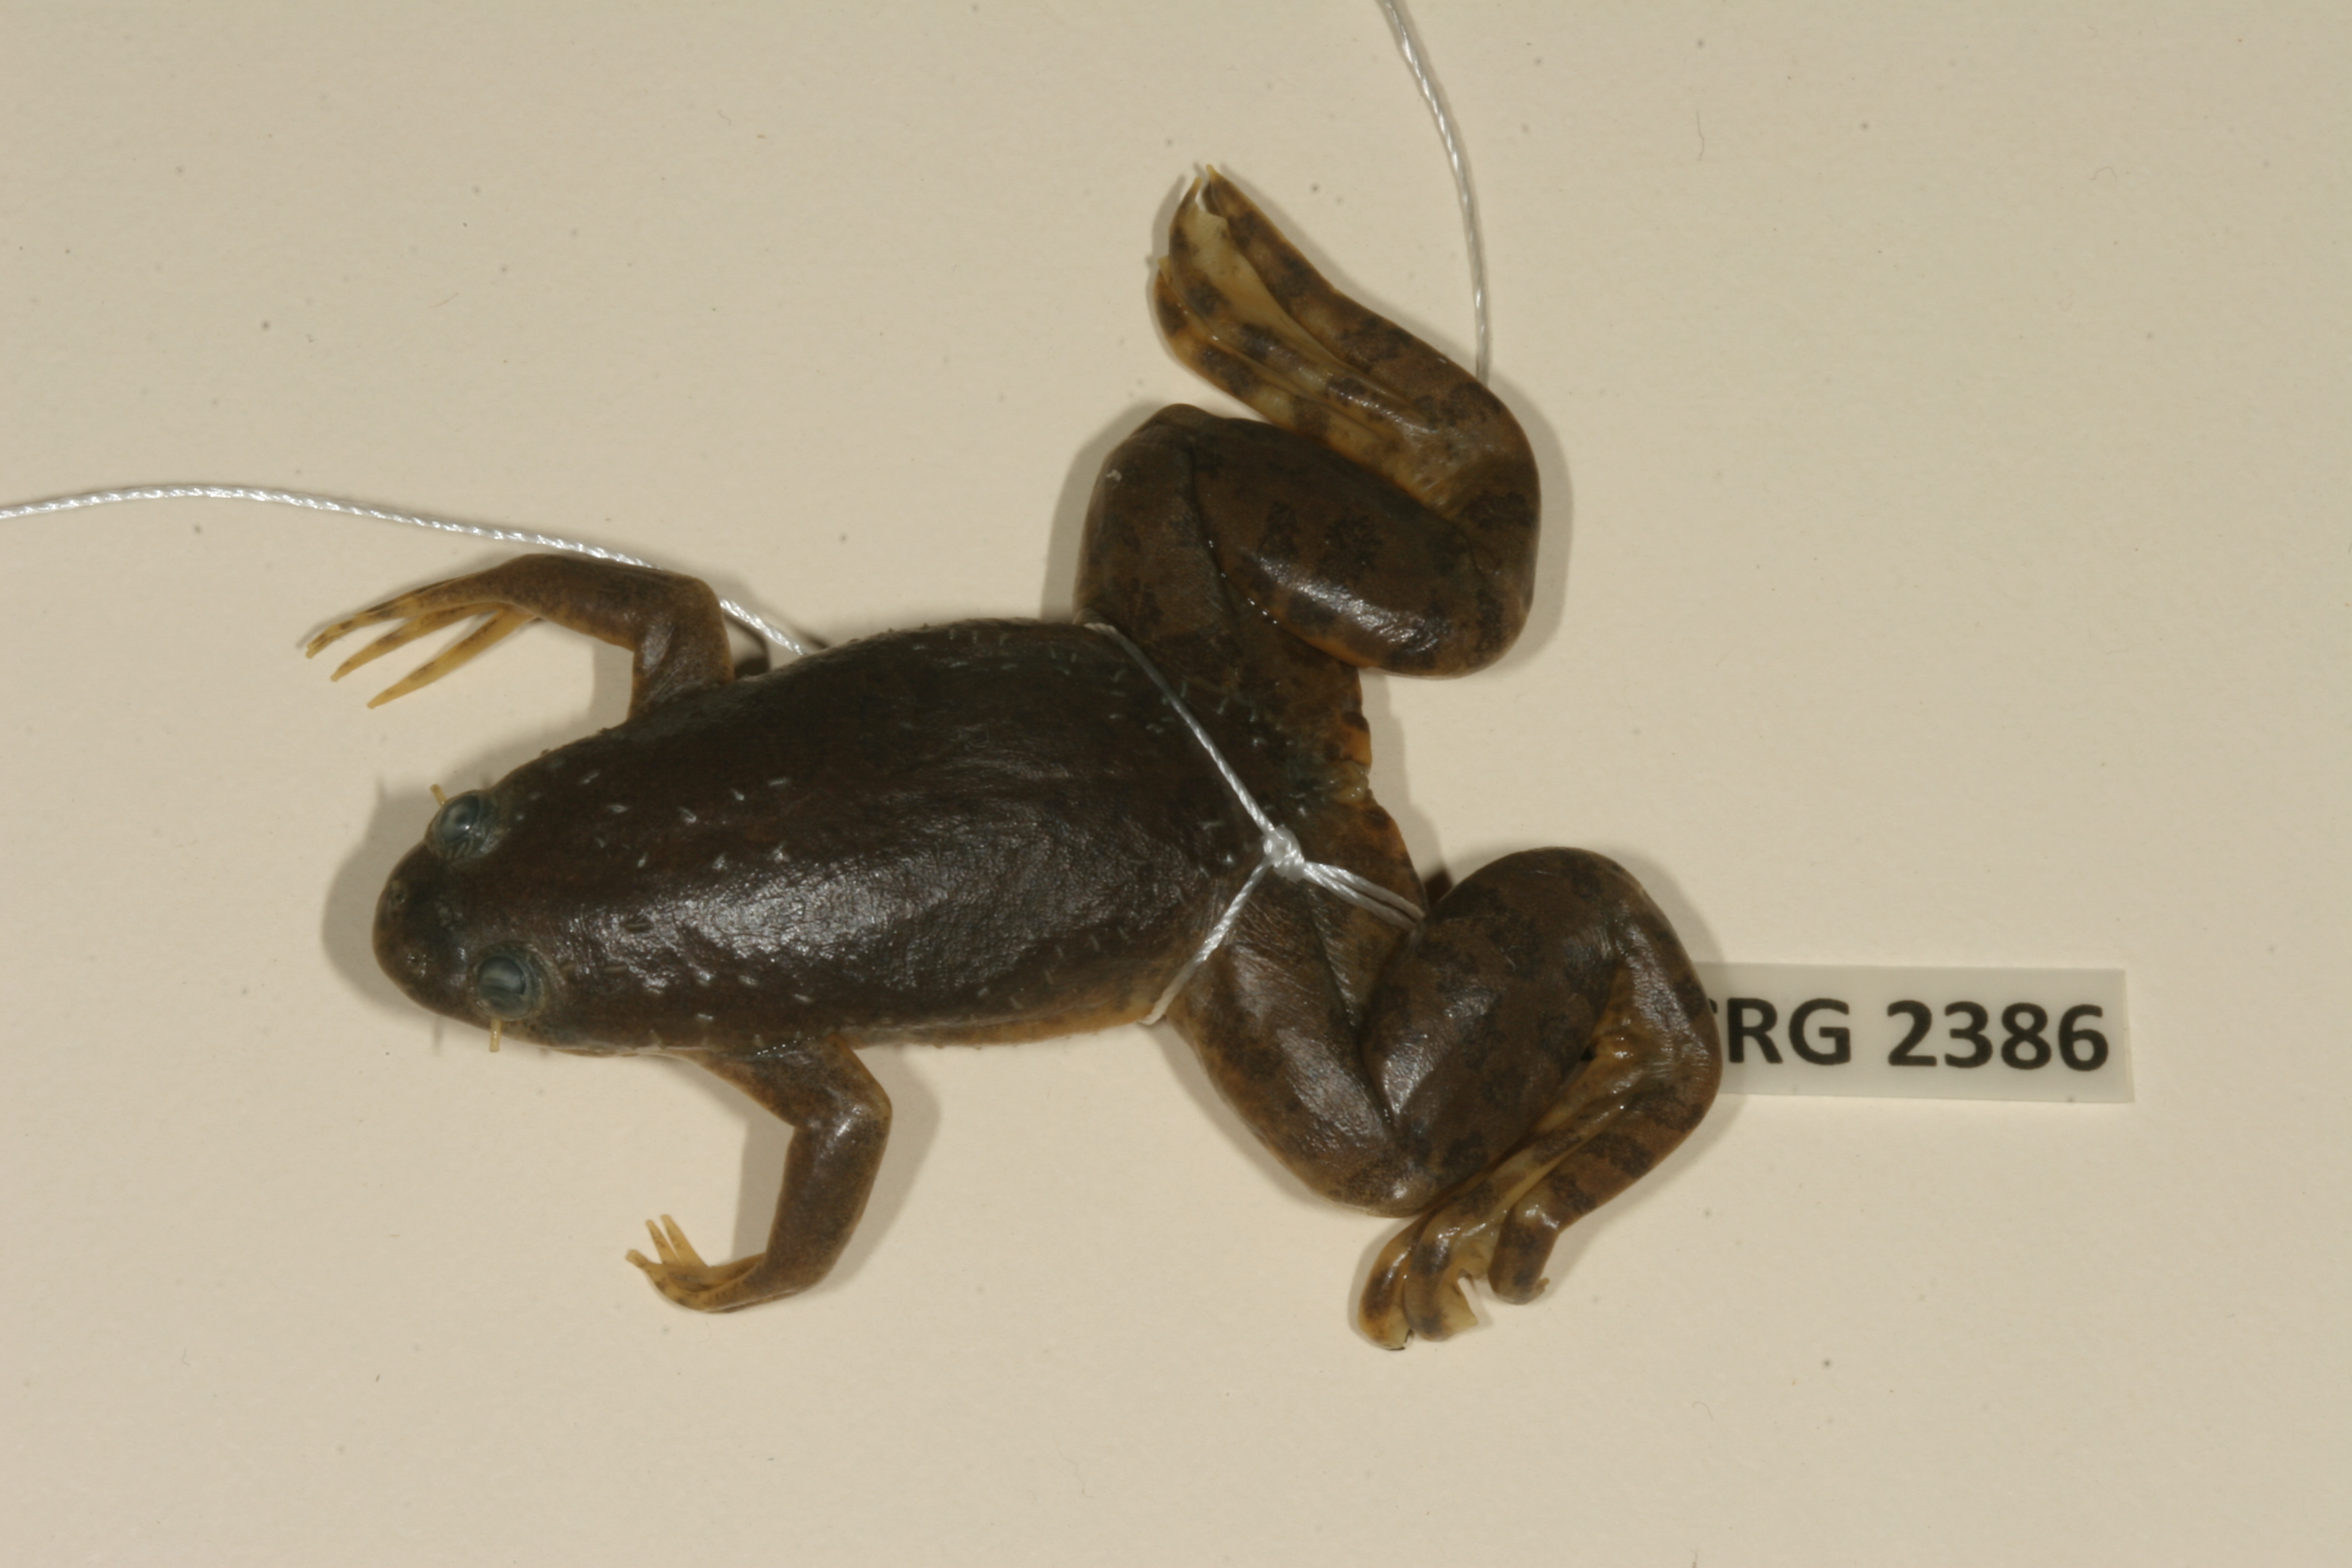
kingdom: Animalia
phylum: Chordata
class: Amphibia
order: Anura
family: Pipidae
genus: Xenopus
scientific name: Xenopus muelleri
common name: Muller's clawed frog
